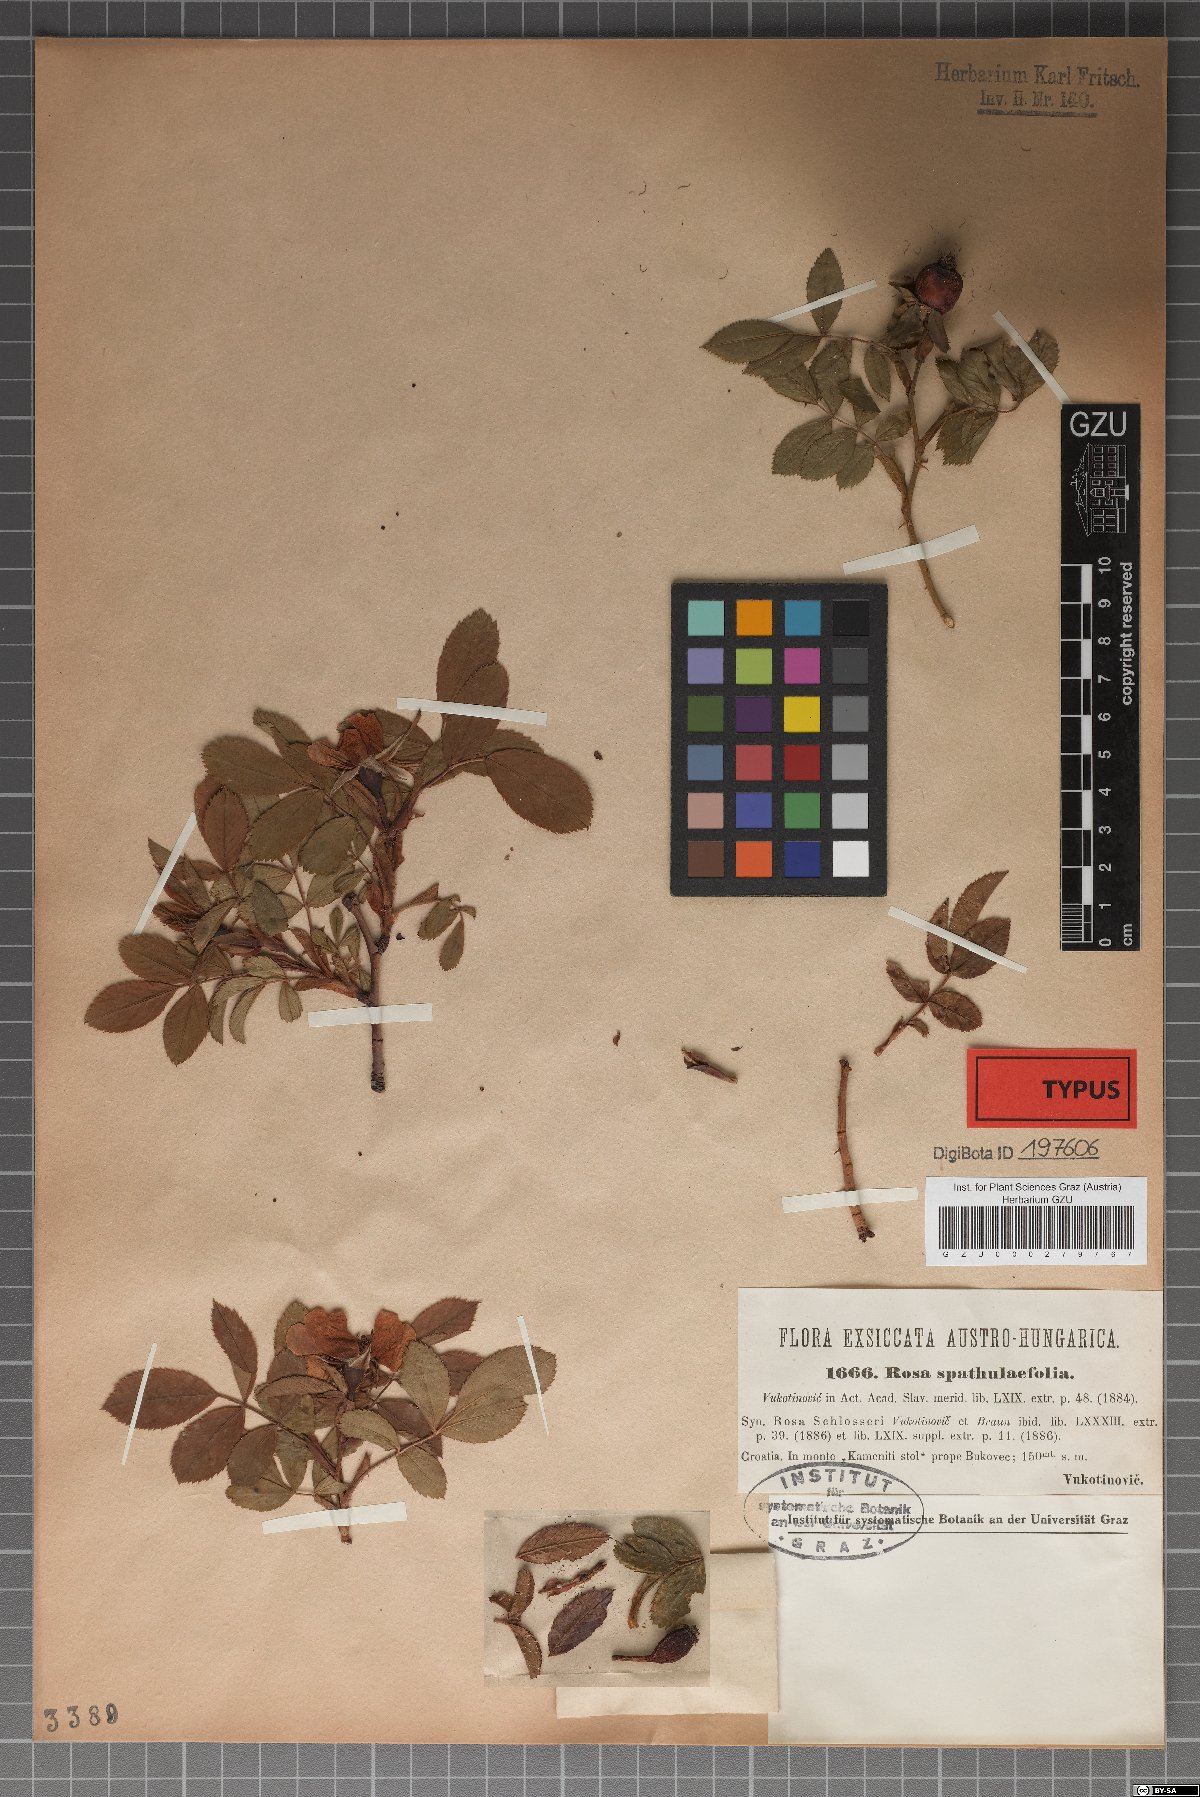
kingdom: Plantae
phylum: Tracheophyta
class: Magnoliopsida
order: Rosales
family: Rosaceae
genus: Rosa
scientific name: Rosa spathulaefolia
